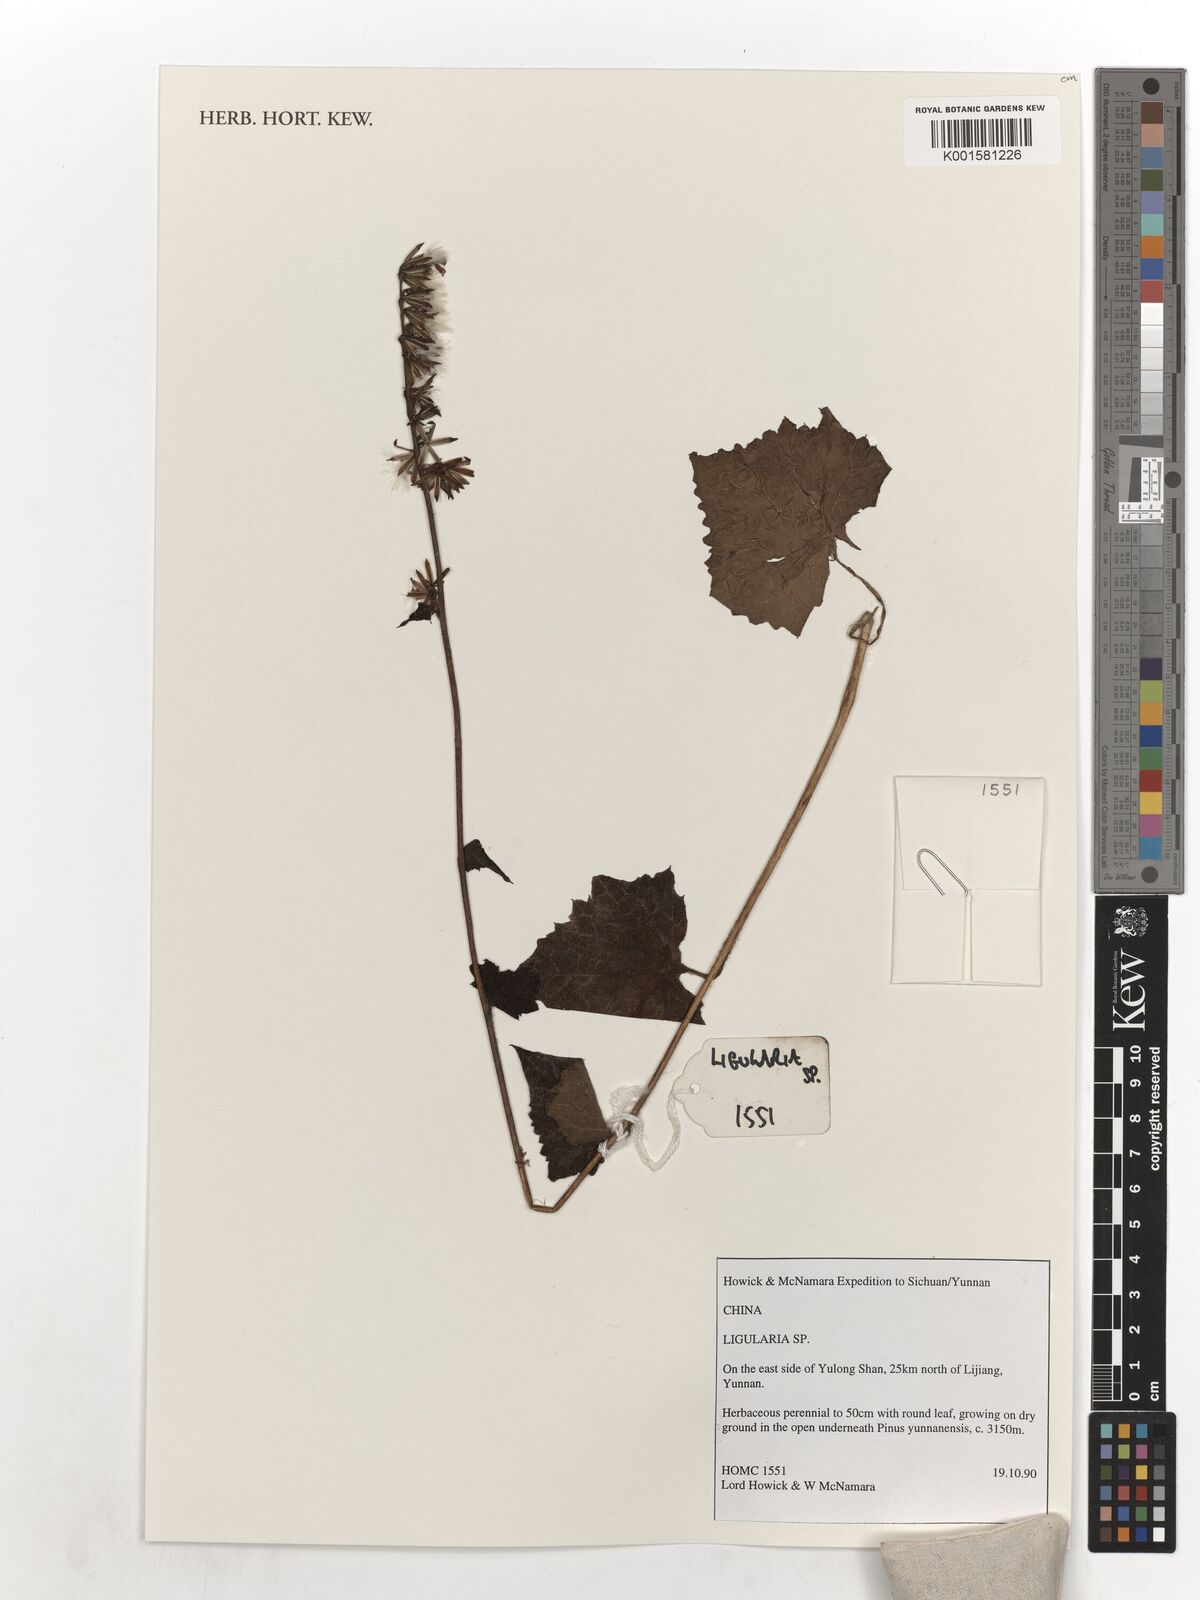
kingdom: Plantae
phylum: Tracheophyta
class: Magnoliopsida
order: Asterales
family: Asteraceae
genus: Ligularia
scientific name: Ligularia
